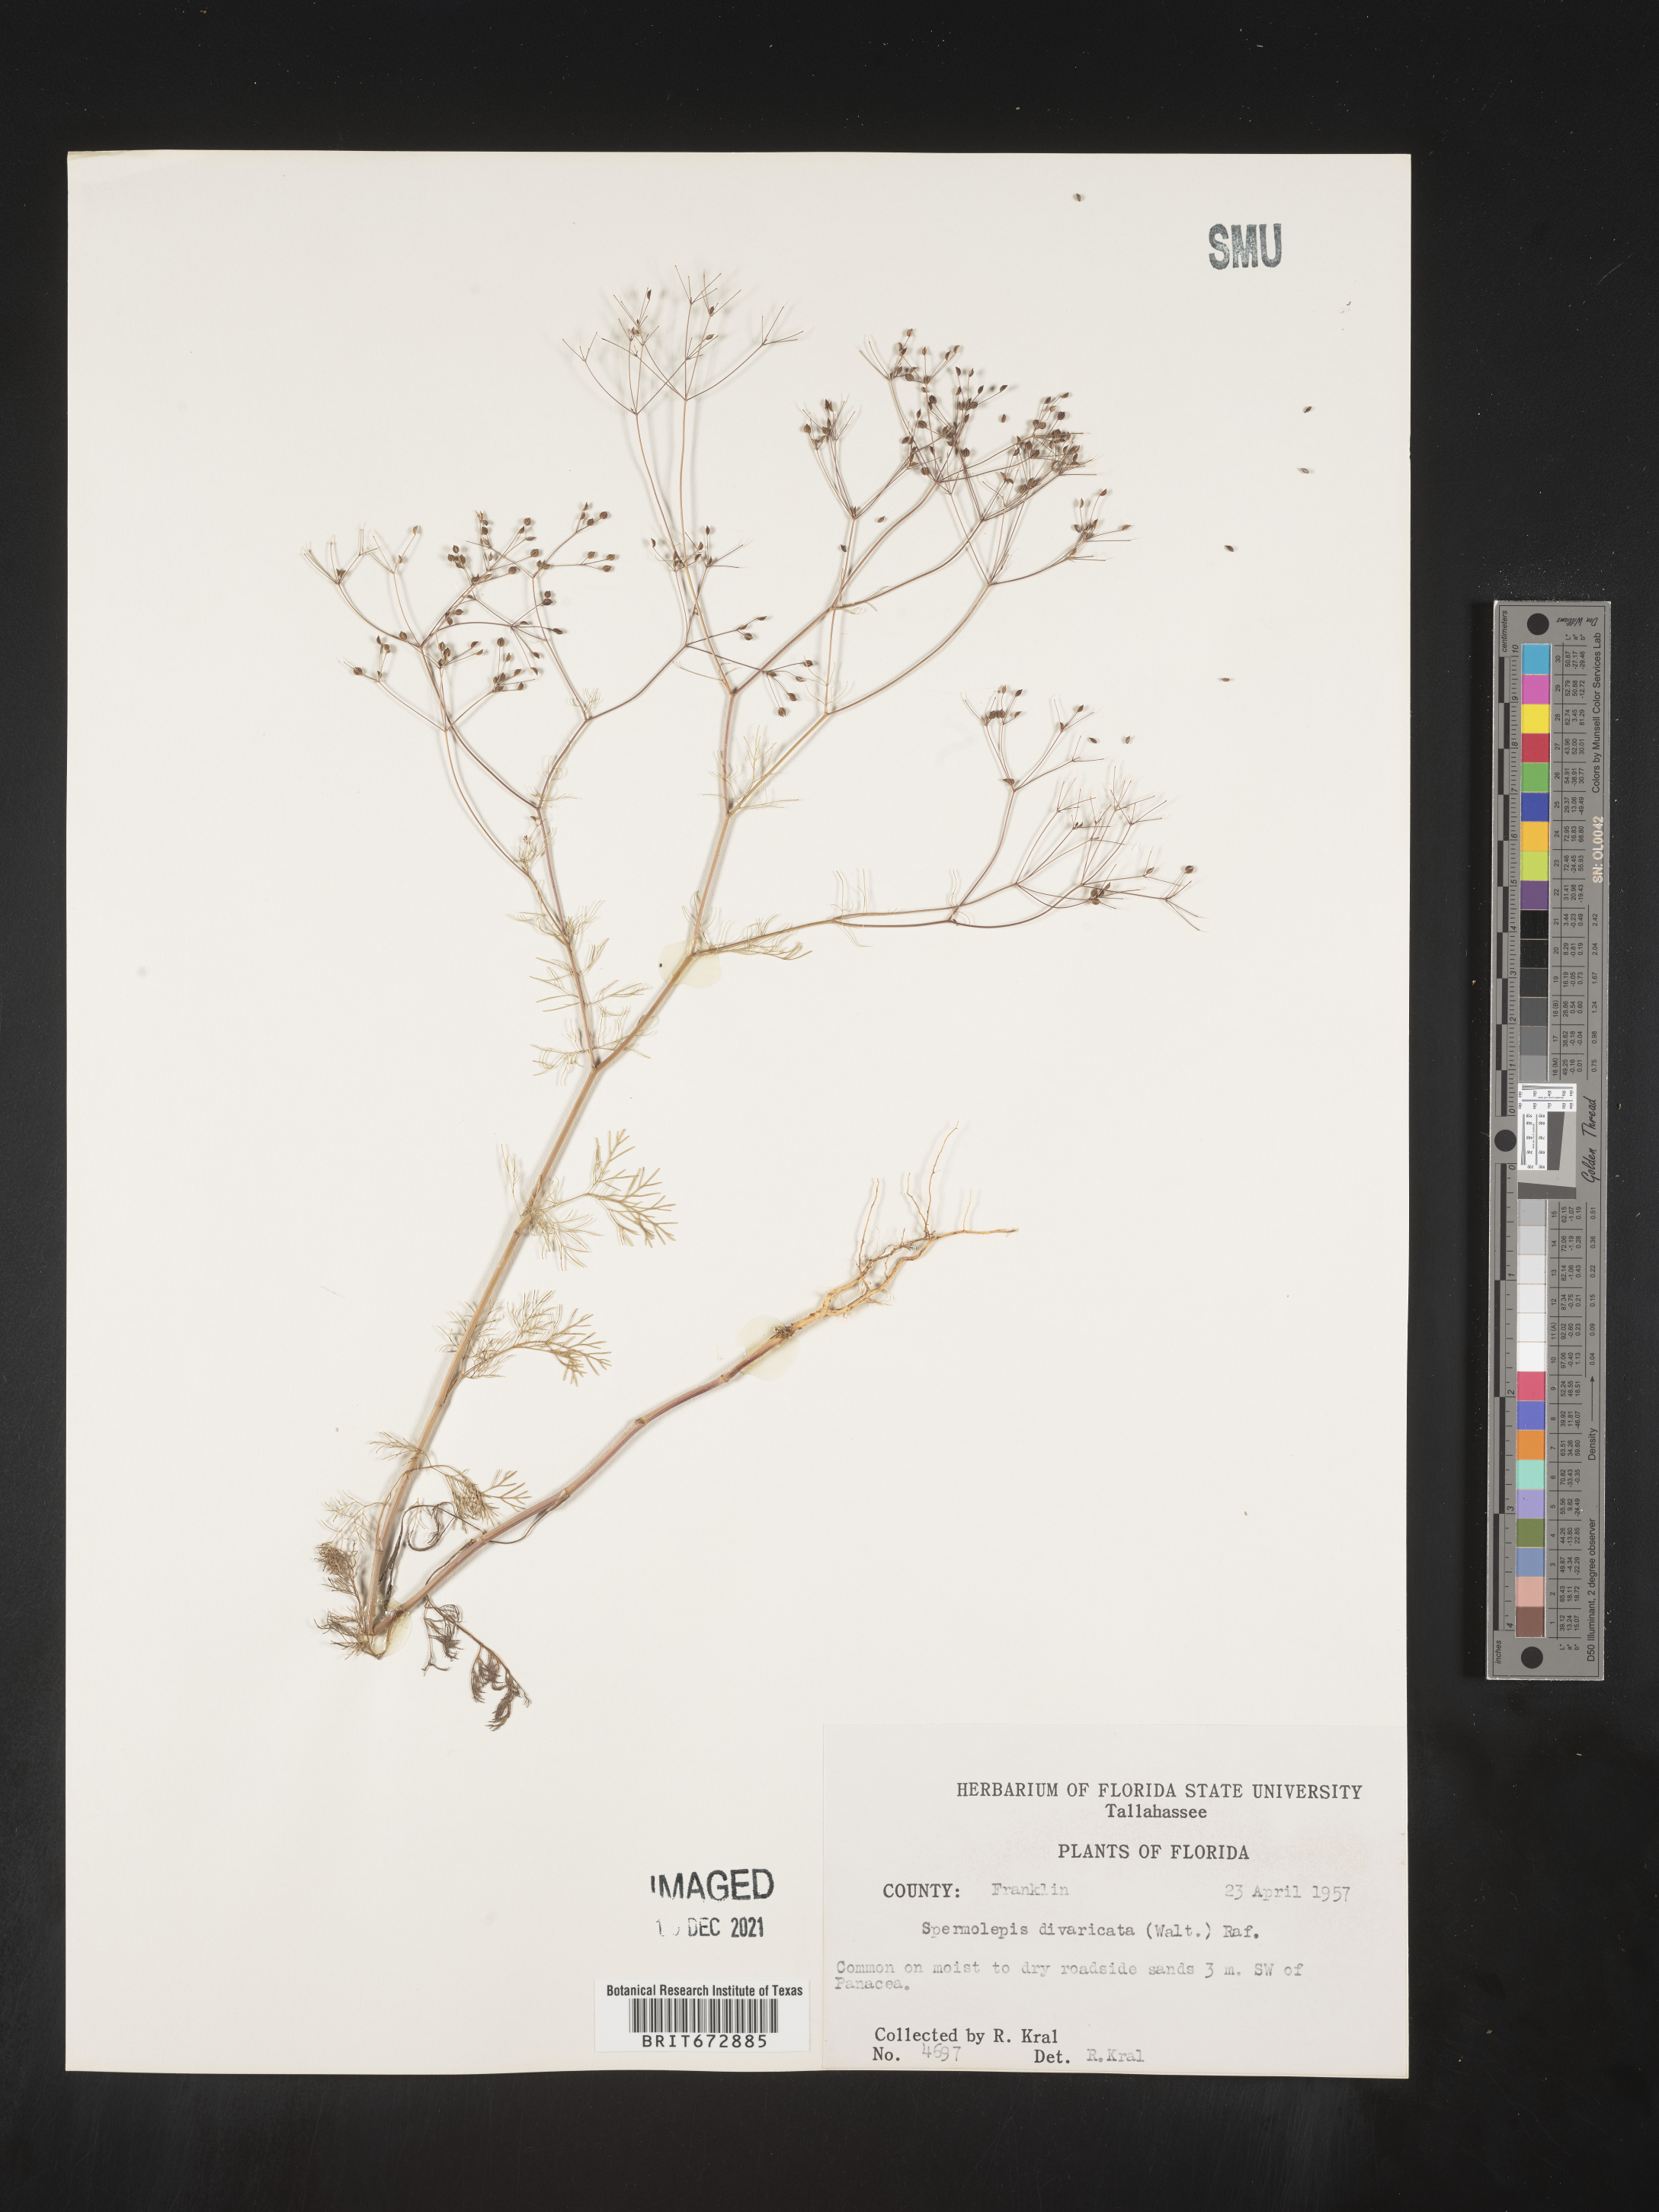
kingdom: Plantae
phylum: Tracheophyta
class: Magnoliopsida
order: Apiales
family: Apiaceae
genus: Spermolepis
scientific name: Spermolepis divaricata
